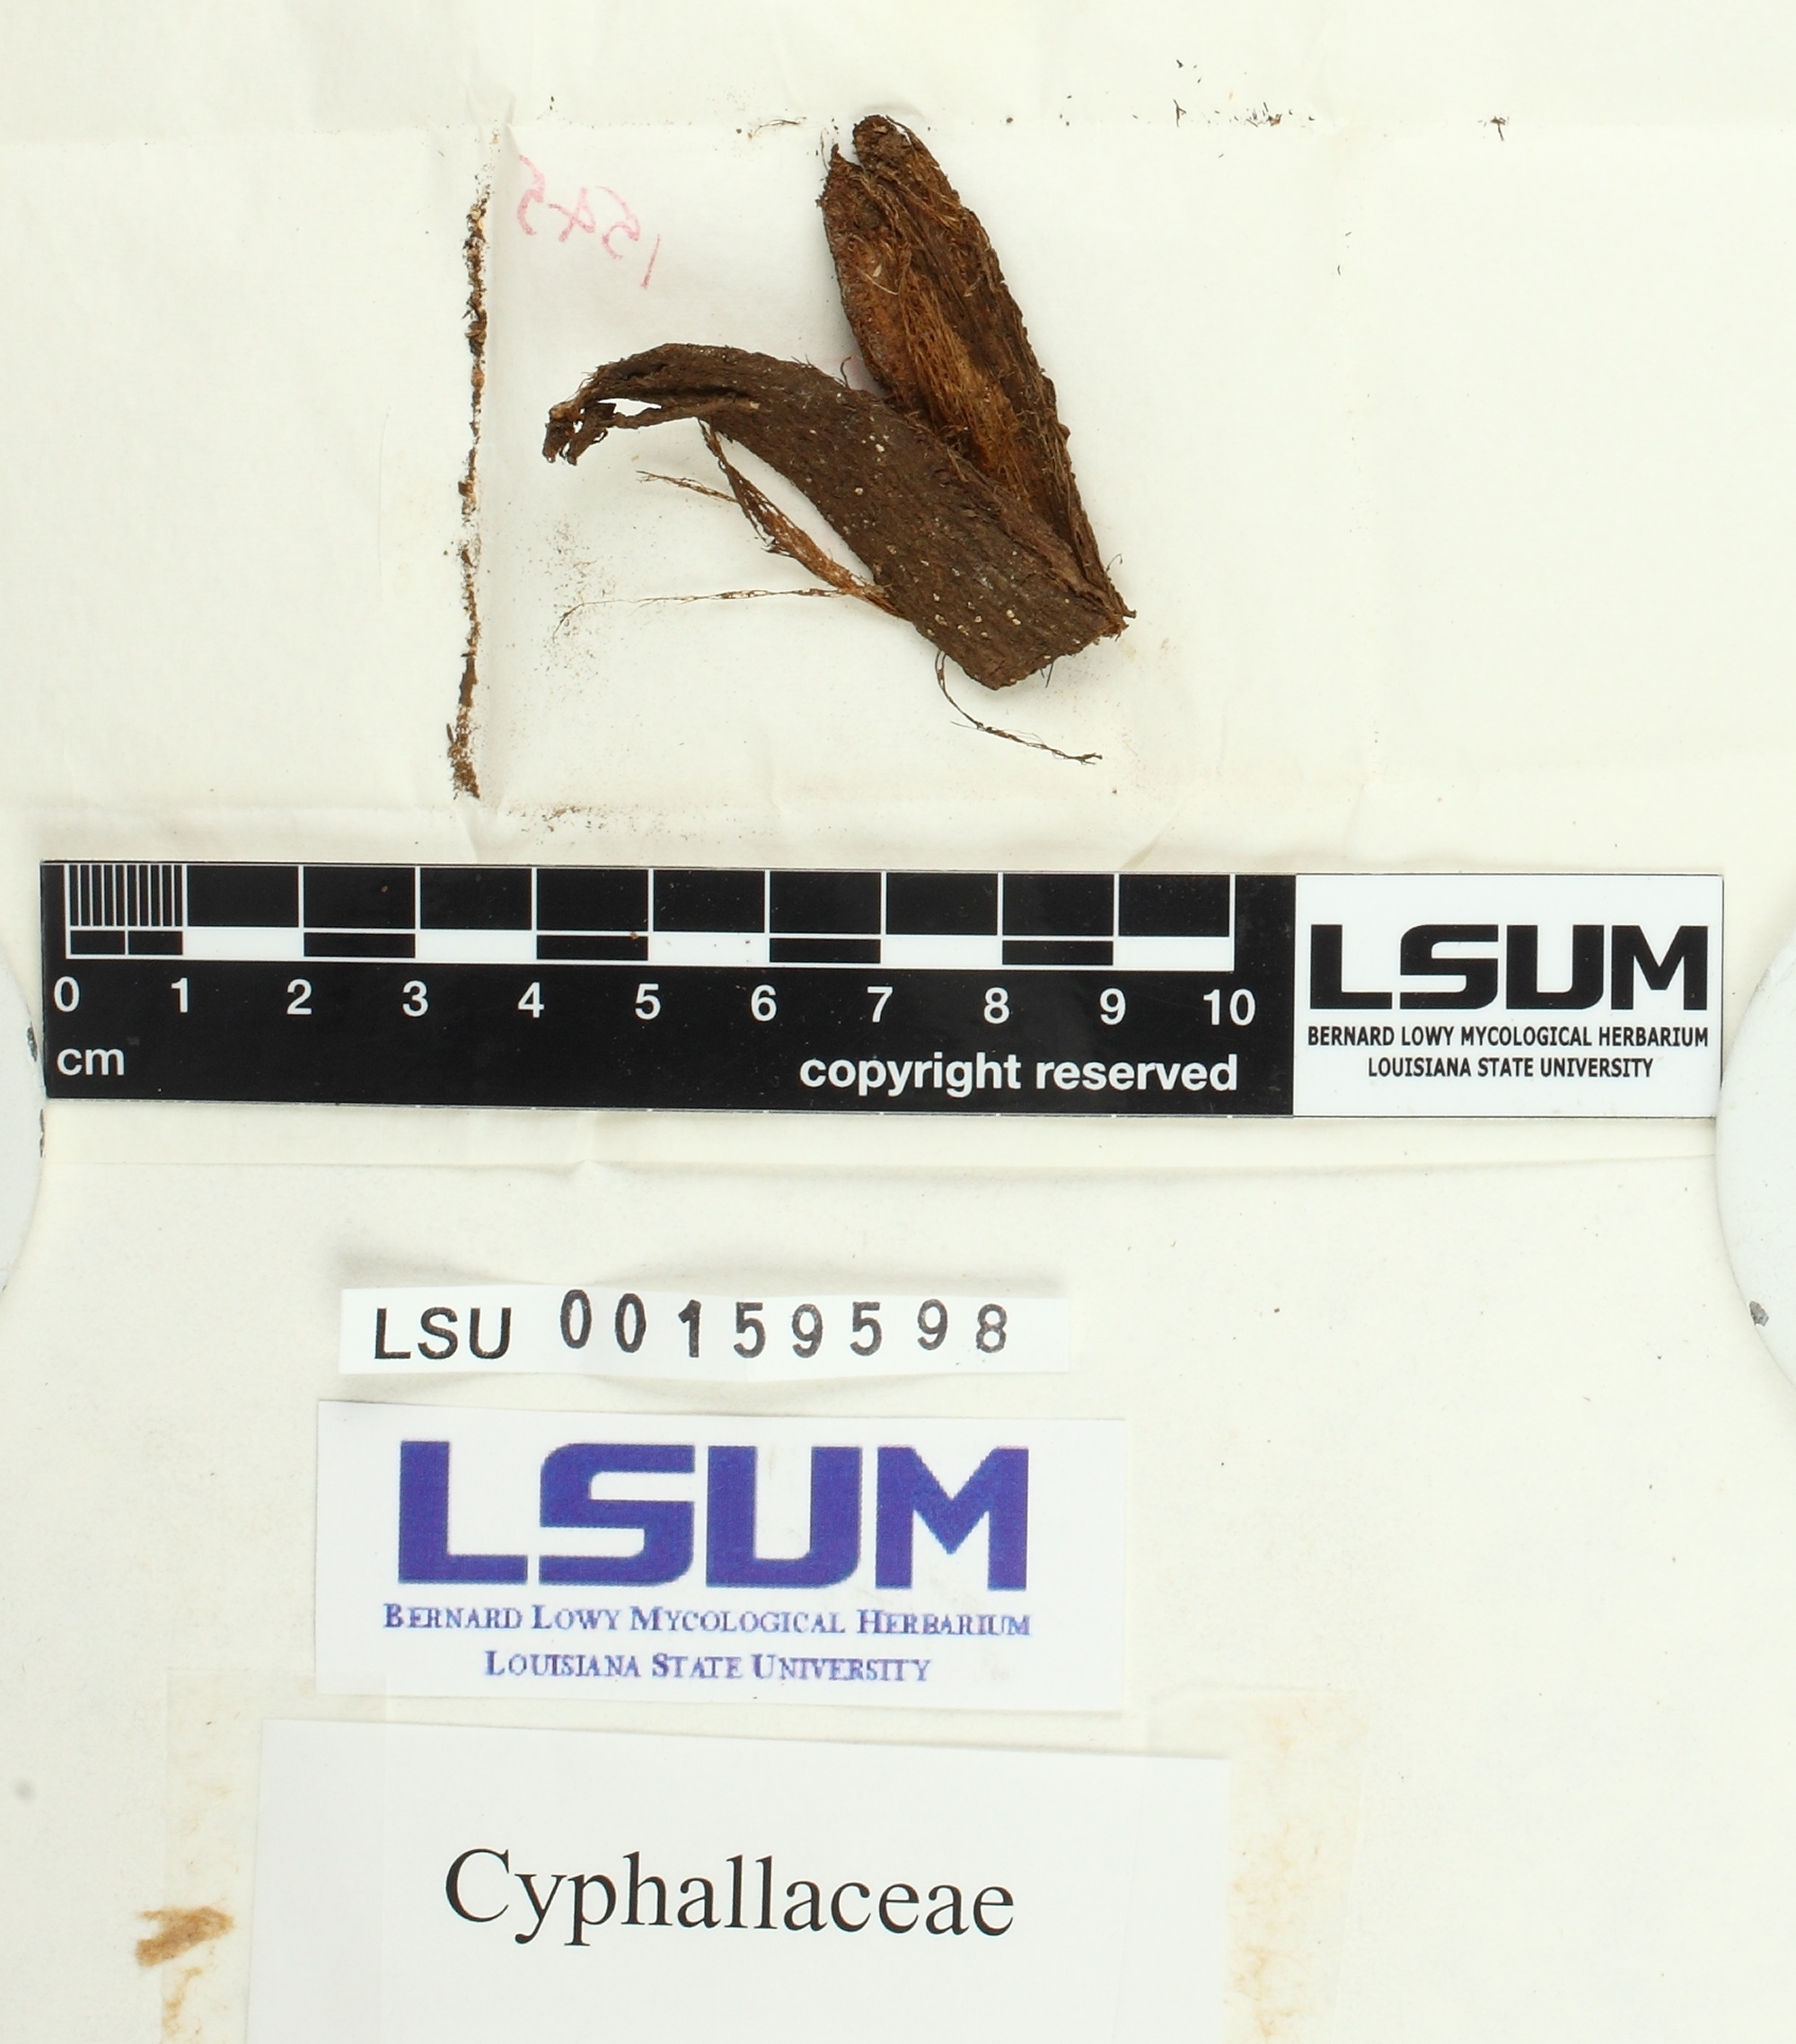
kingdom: Fungi
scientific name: Fungi
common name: Fungi
